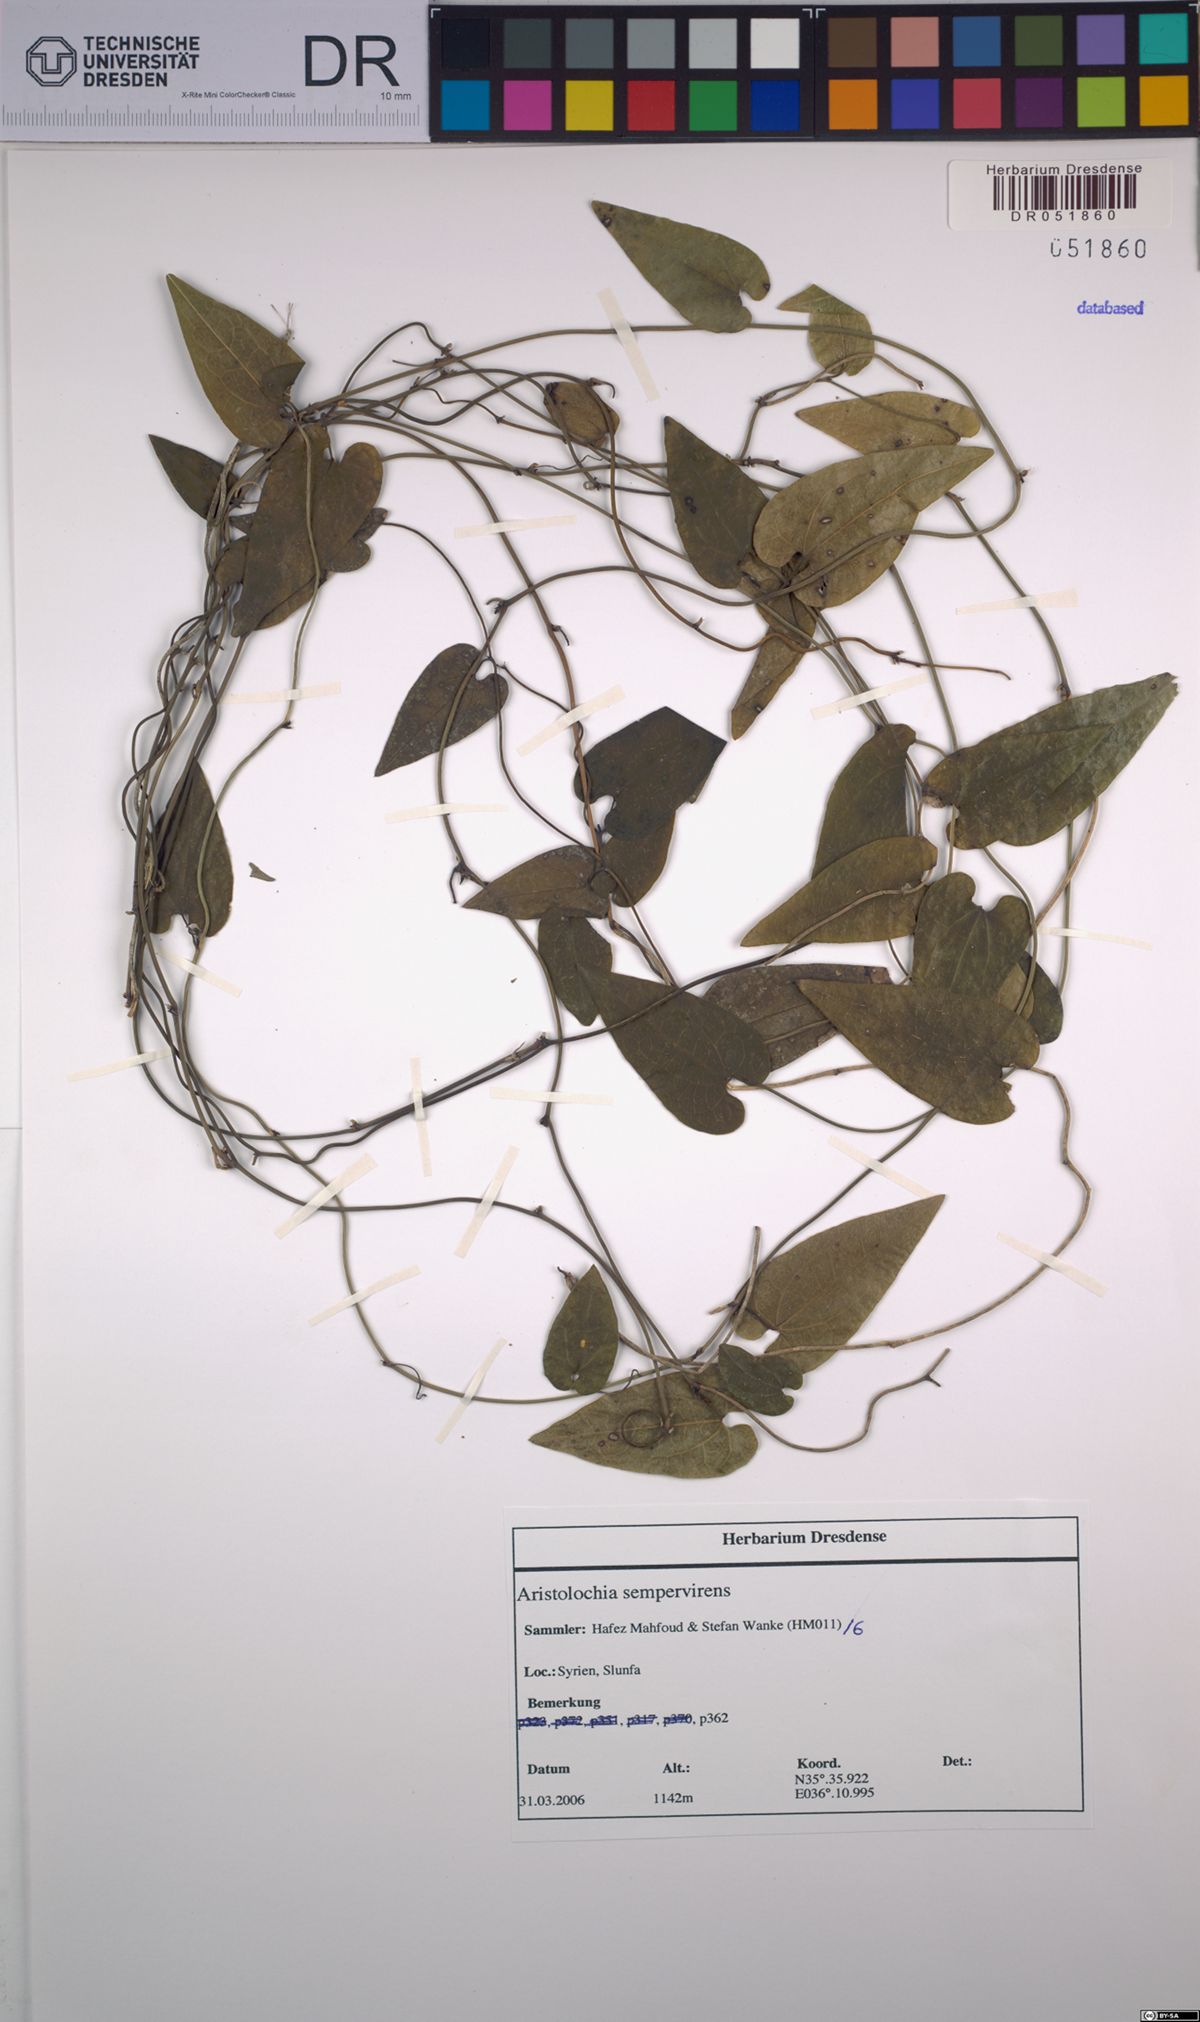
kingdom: Plantae
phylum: Tracheophyta
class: Magnoliopsida
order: Piperales
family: Aristolochiaceae
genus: Aristolochia
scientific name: Aristolochia sempervirens
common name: Long birthwort
